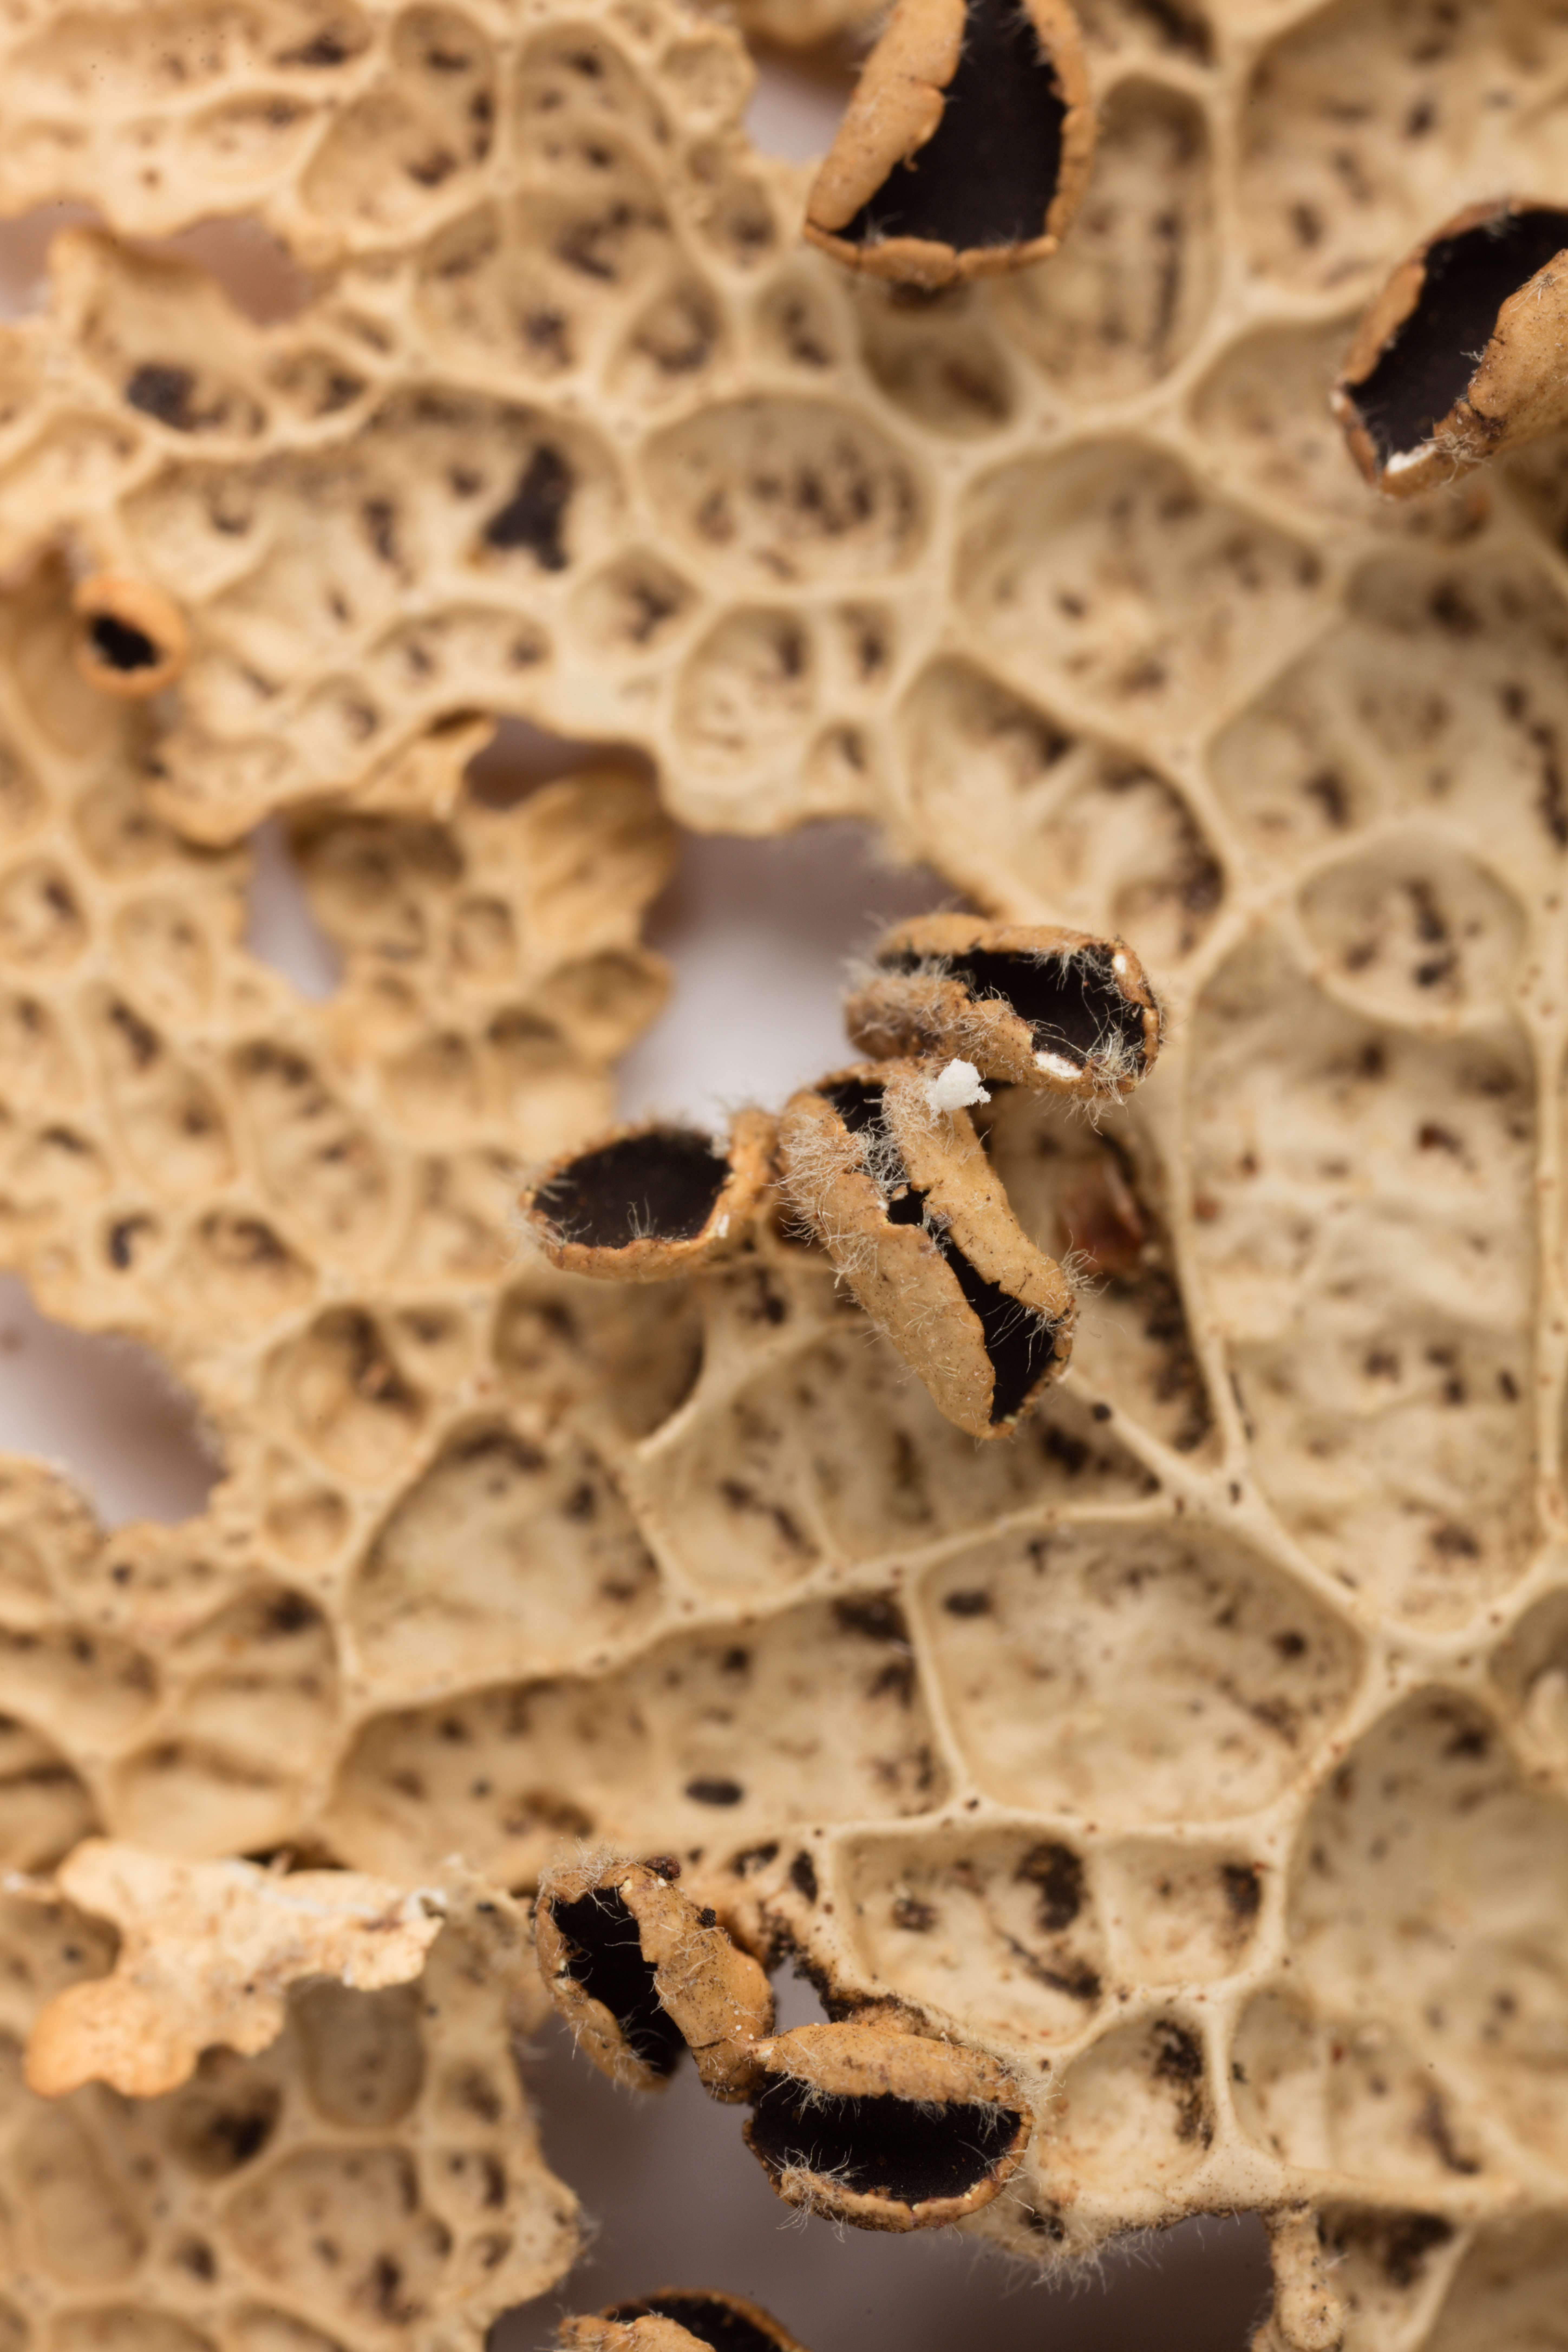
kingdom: Fungi
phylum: Ascomycota
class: Lecanoromycetes
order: Peltigerales
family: Lobariaceae
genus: Pseudocyphellaria
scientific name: Pseudocyphellaria durietzii
